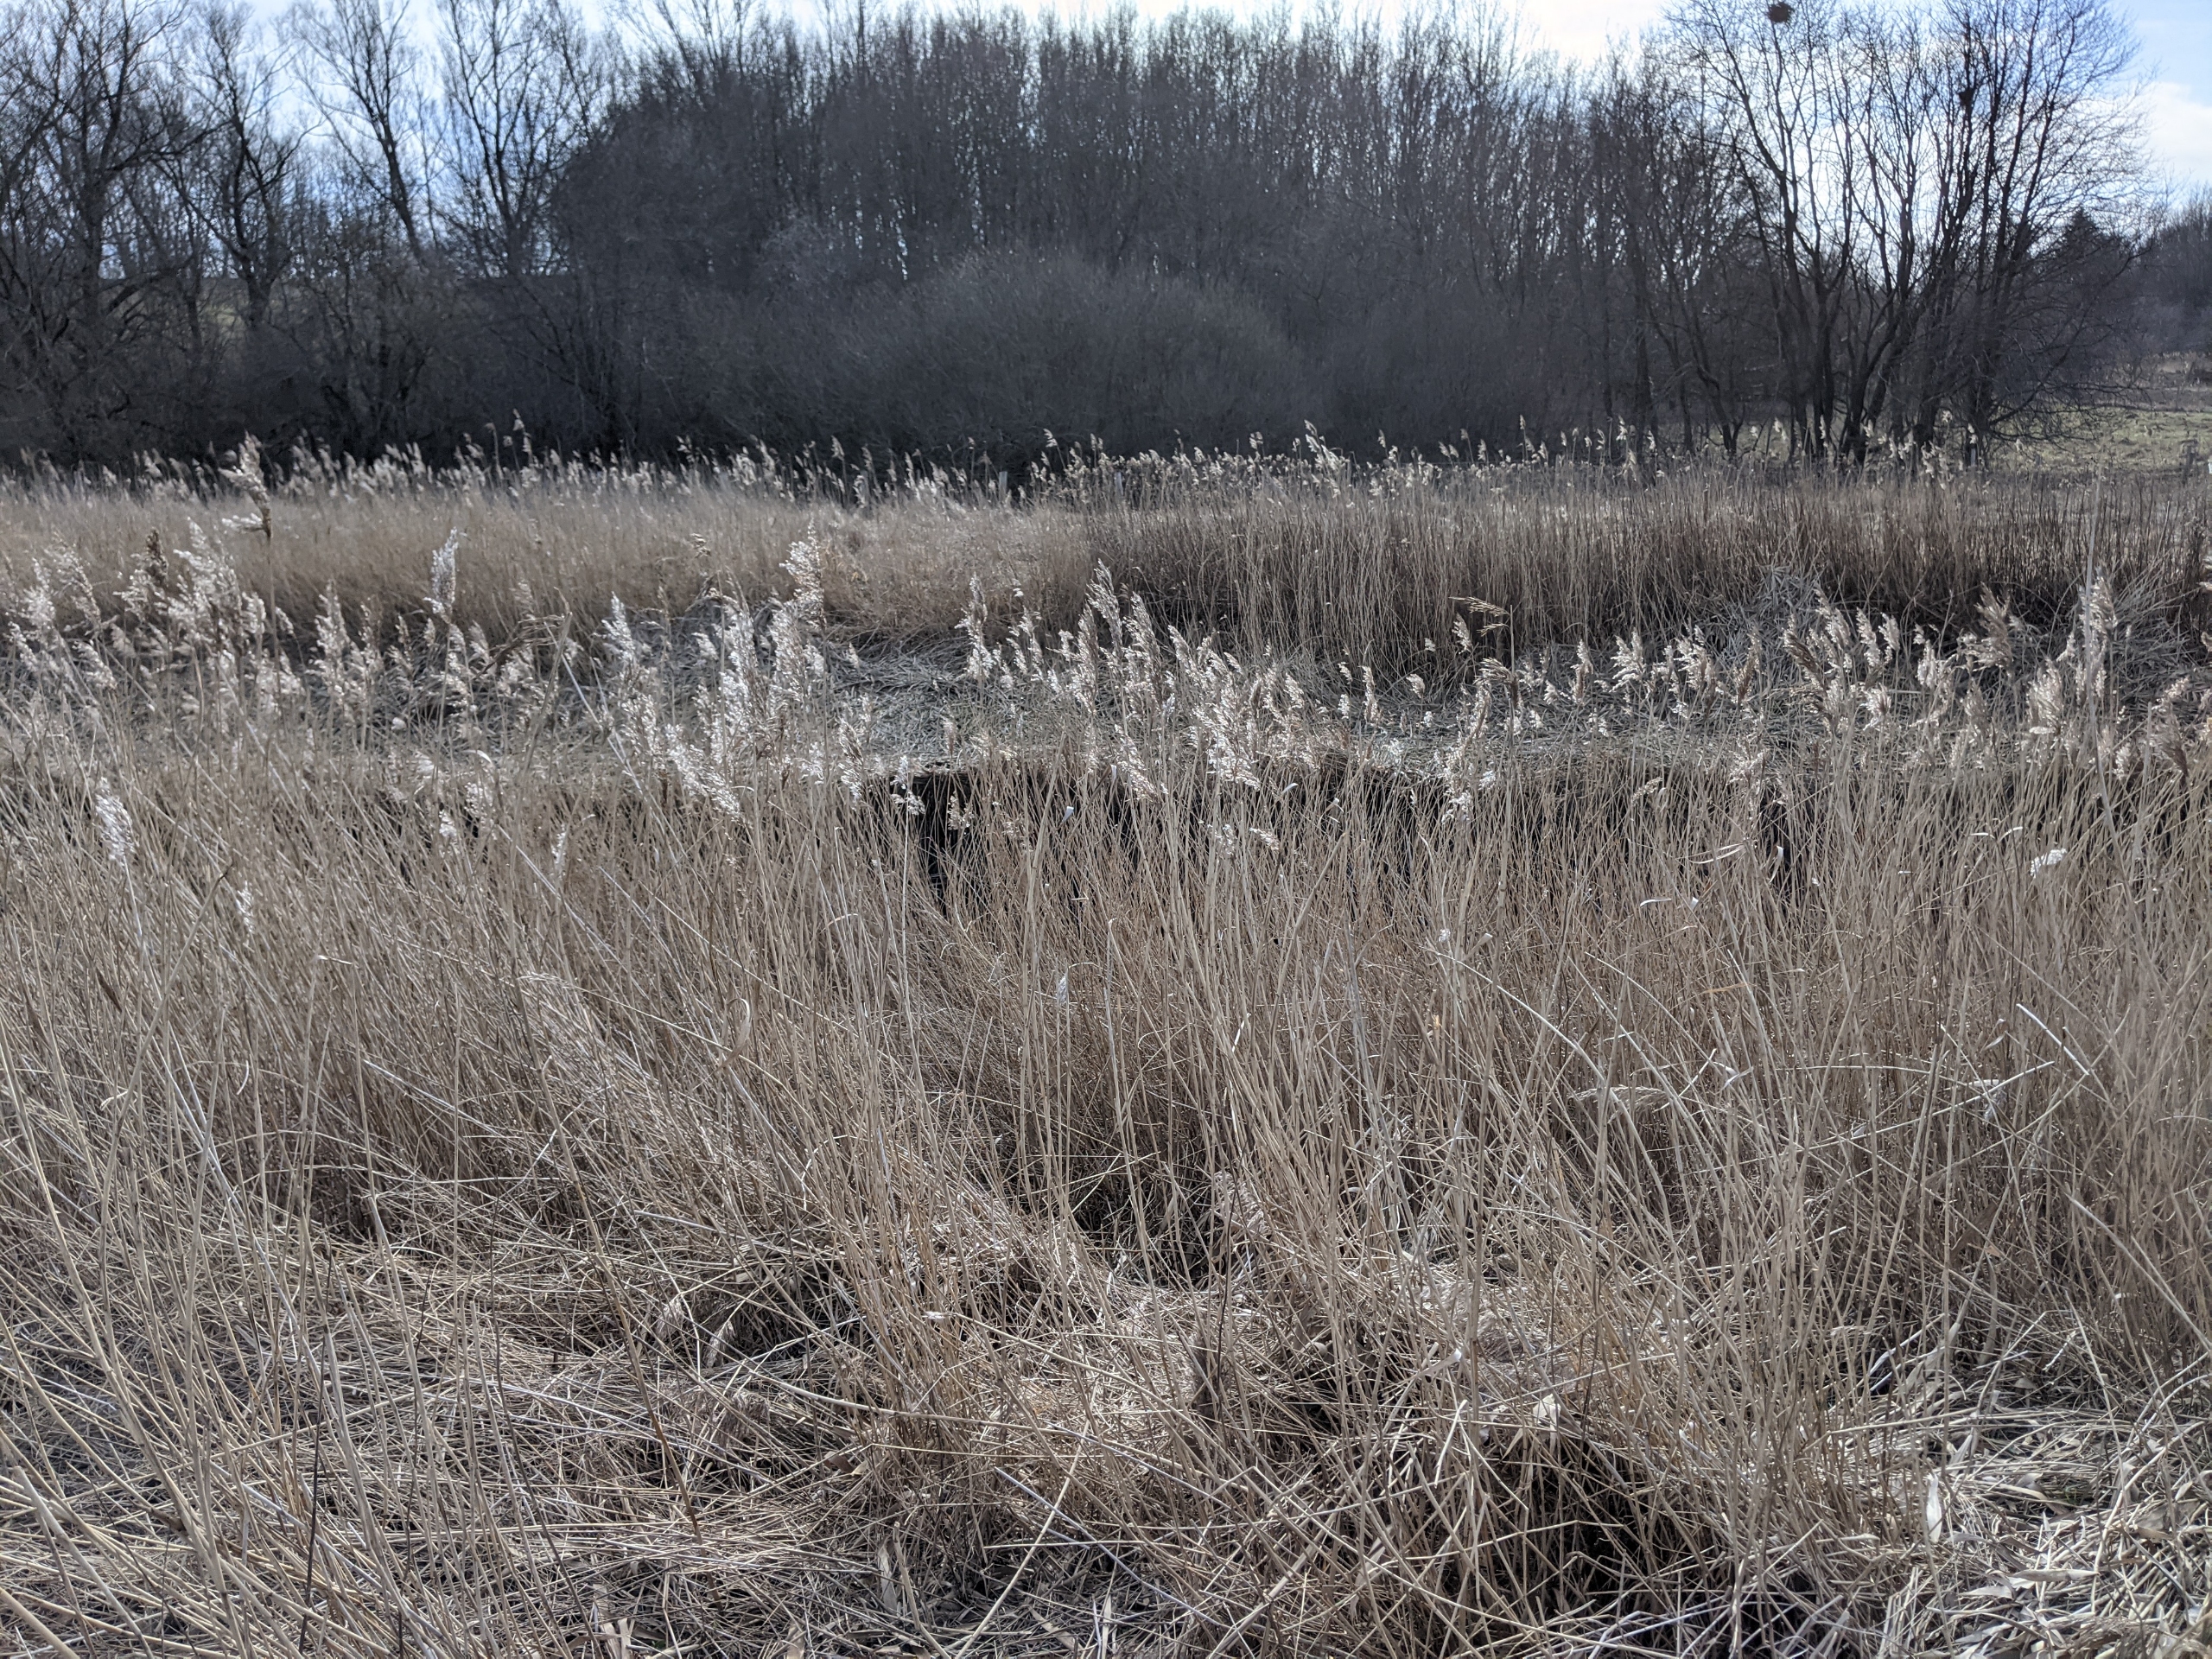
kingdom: Plantae
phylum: Tracheophyta
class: Liliopsida
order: Poales
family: Poaceae
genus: Phragmites
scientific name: Phragmites australis
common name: Tagrør
